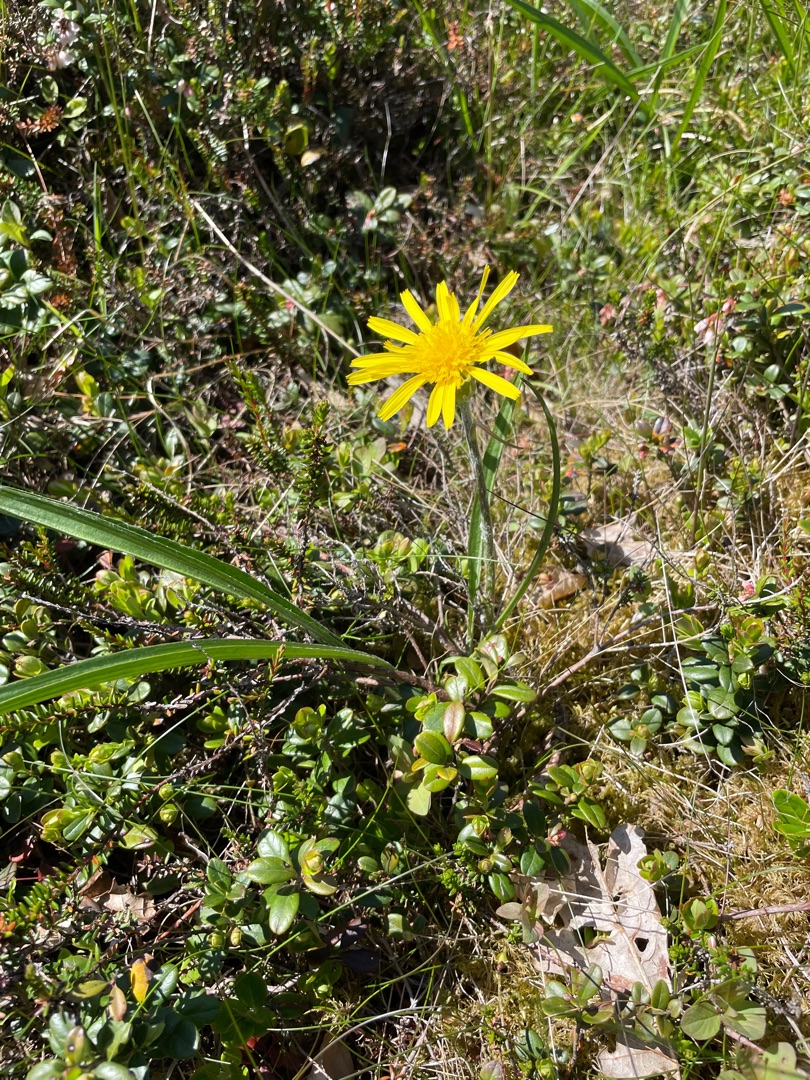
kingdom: Plantae
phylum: Tracheophyta
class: Magnoliopsida
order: Asterales
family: Asteraceae
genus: Scorzonera
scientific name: Scorzonera humilis
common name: Lav skorsoner
